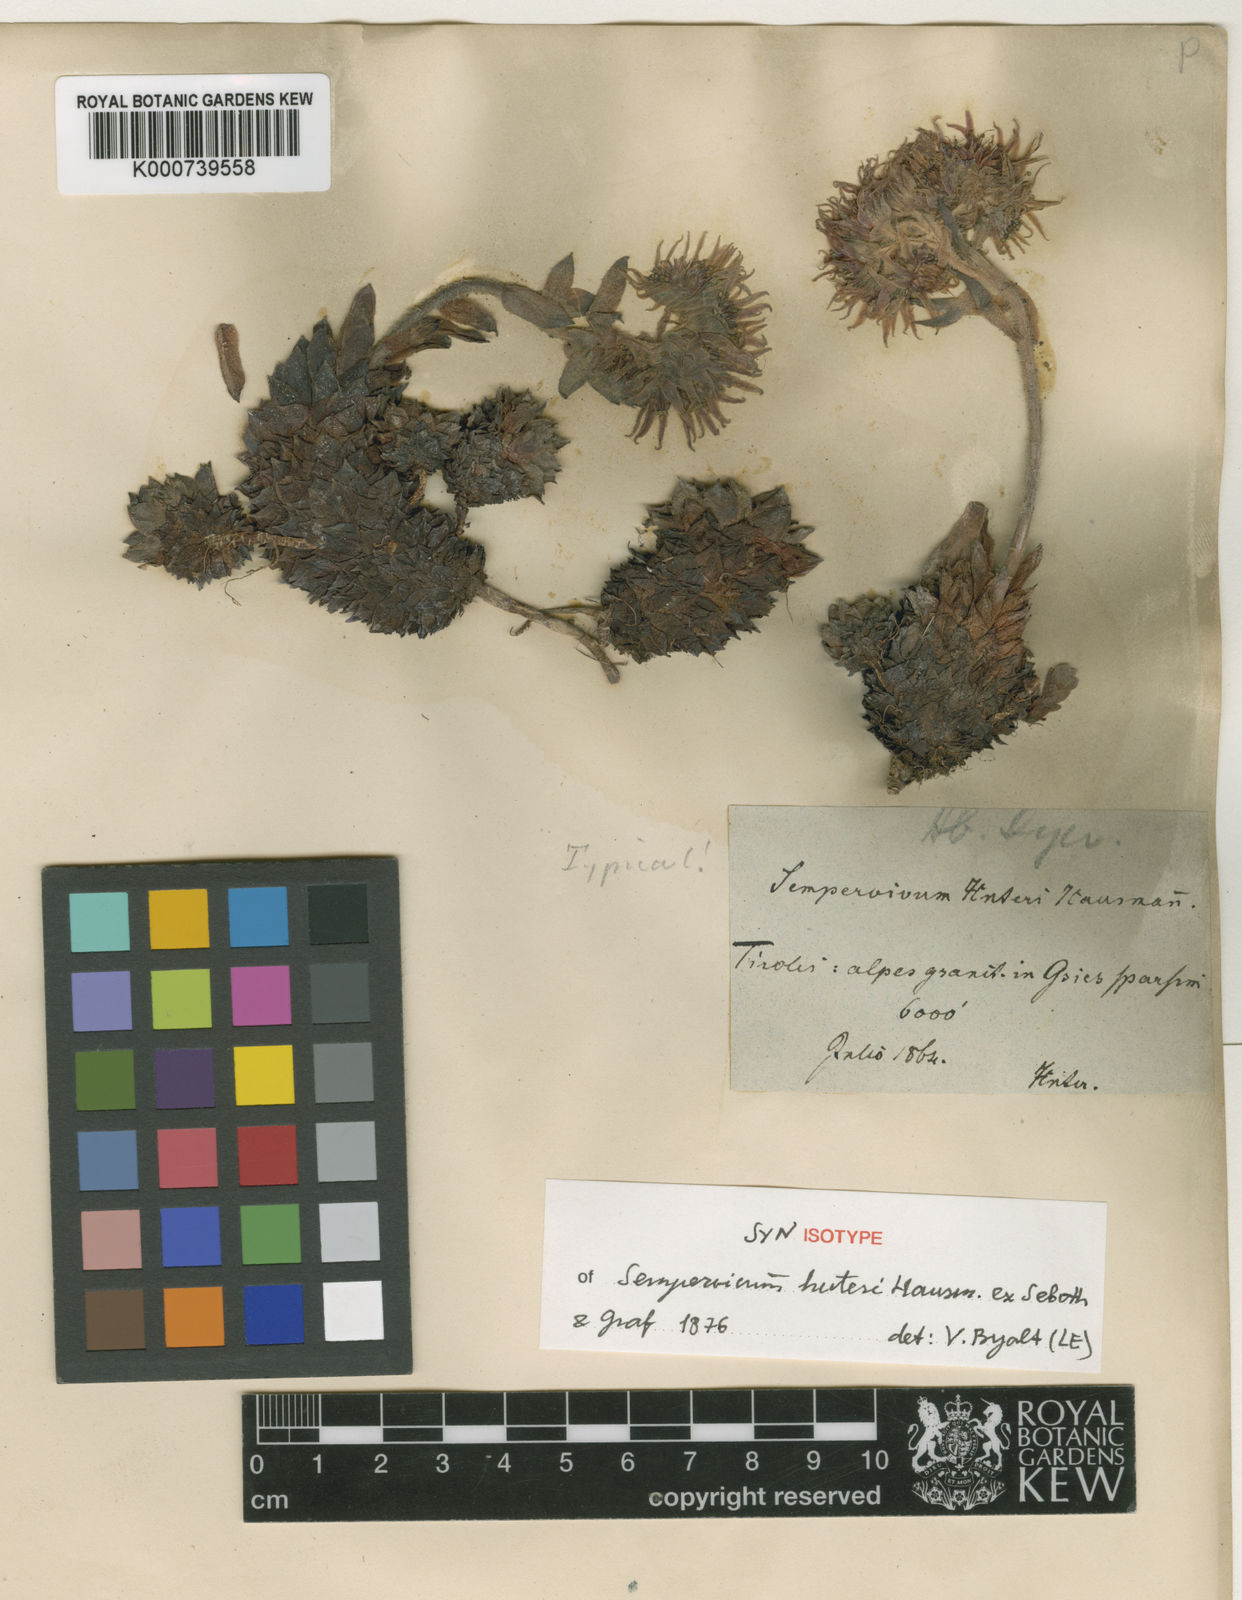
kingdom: Plantae
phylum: Tracheophyta
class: Magnoliopsida
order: Saxifragales
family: Crassulaceae
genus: Sempervivum
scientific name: Sempervivum rupicola
